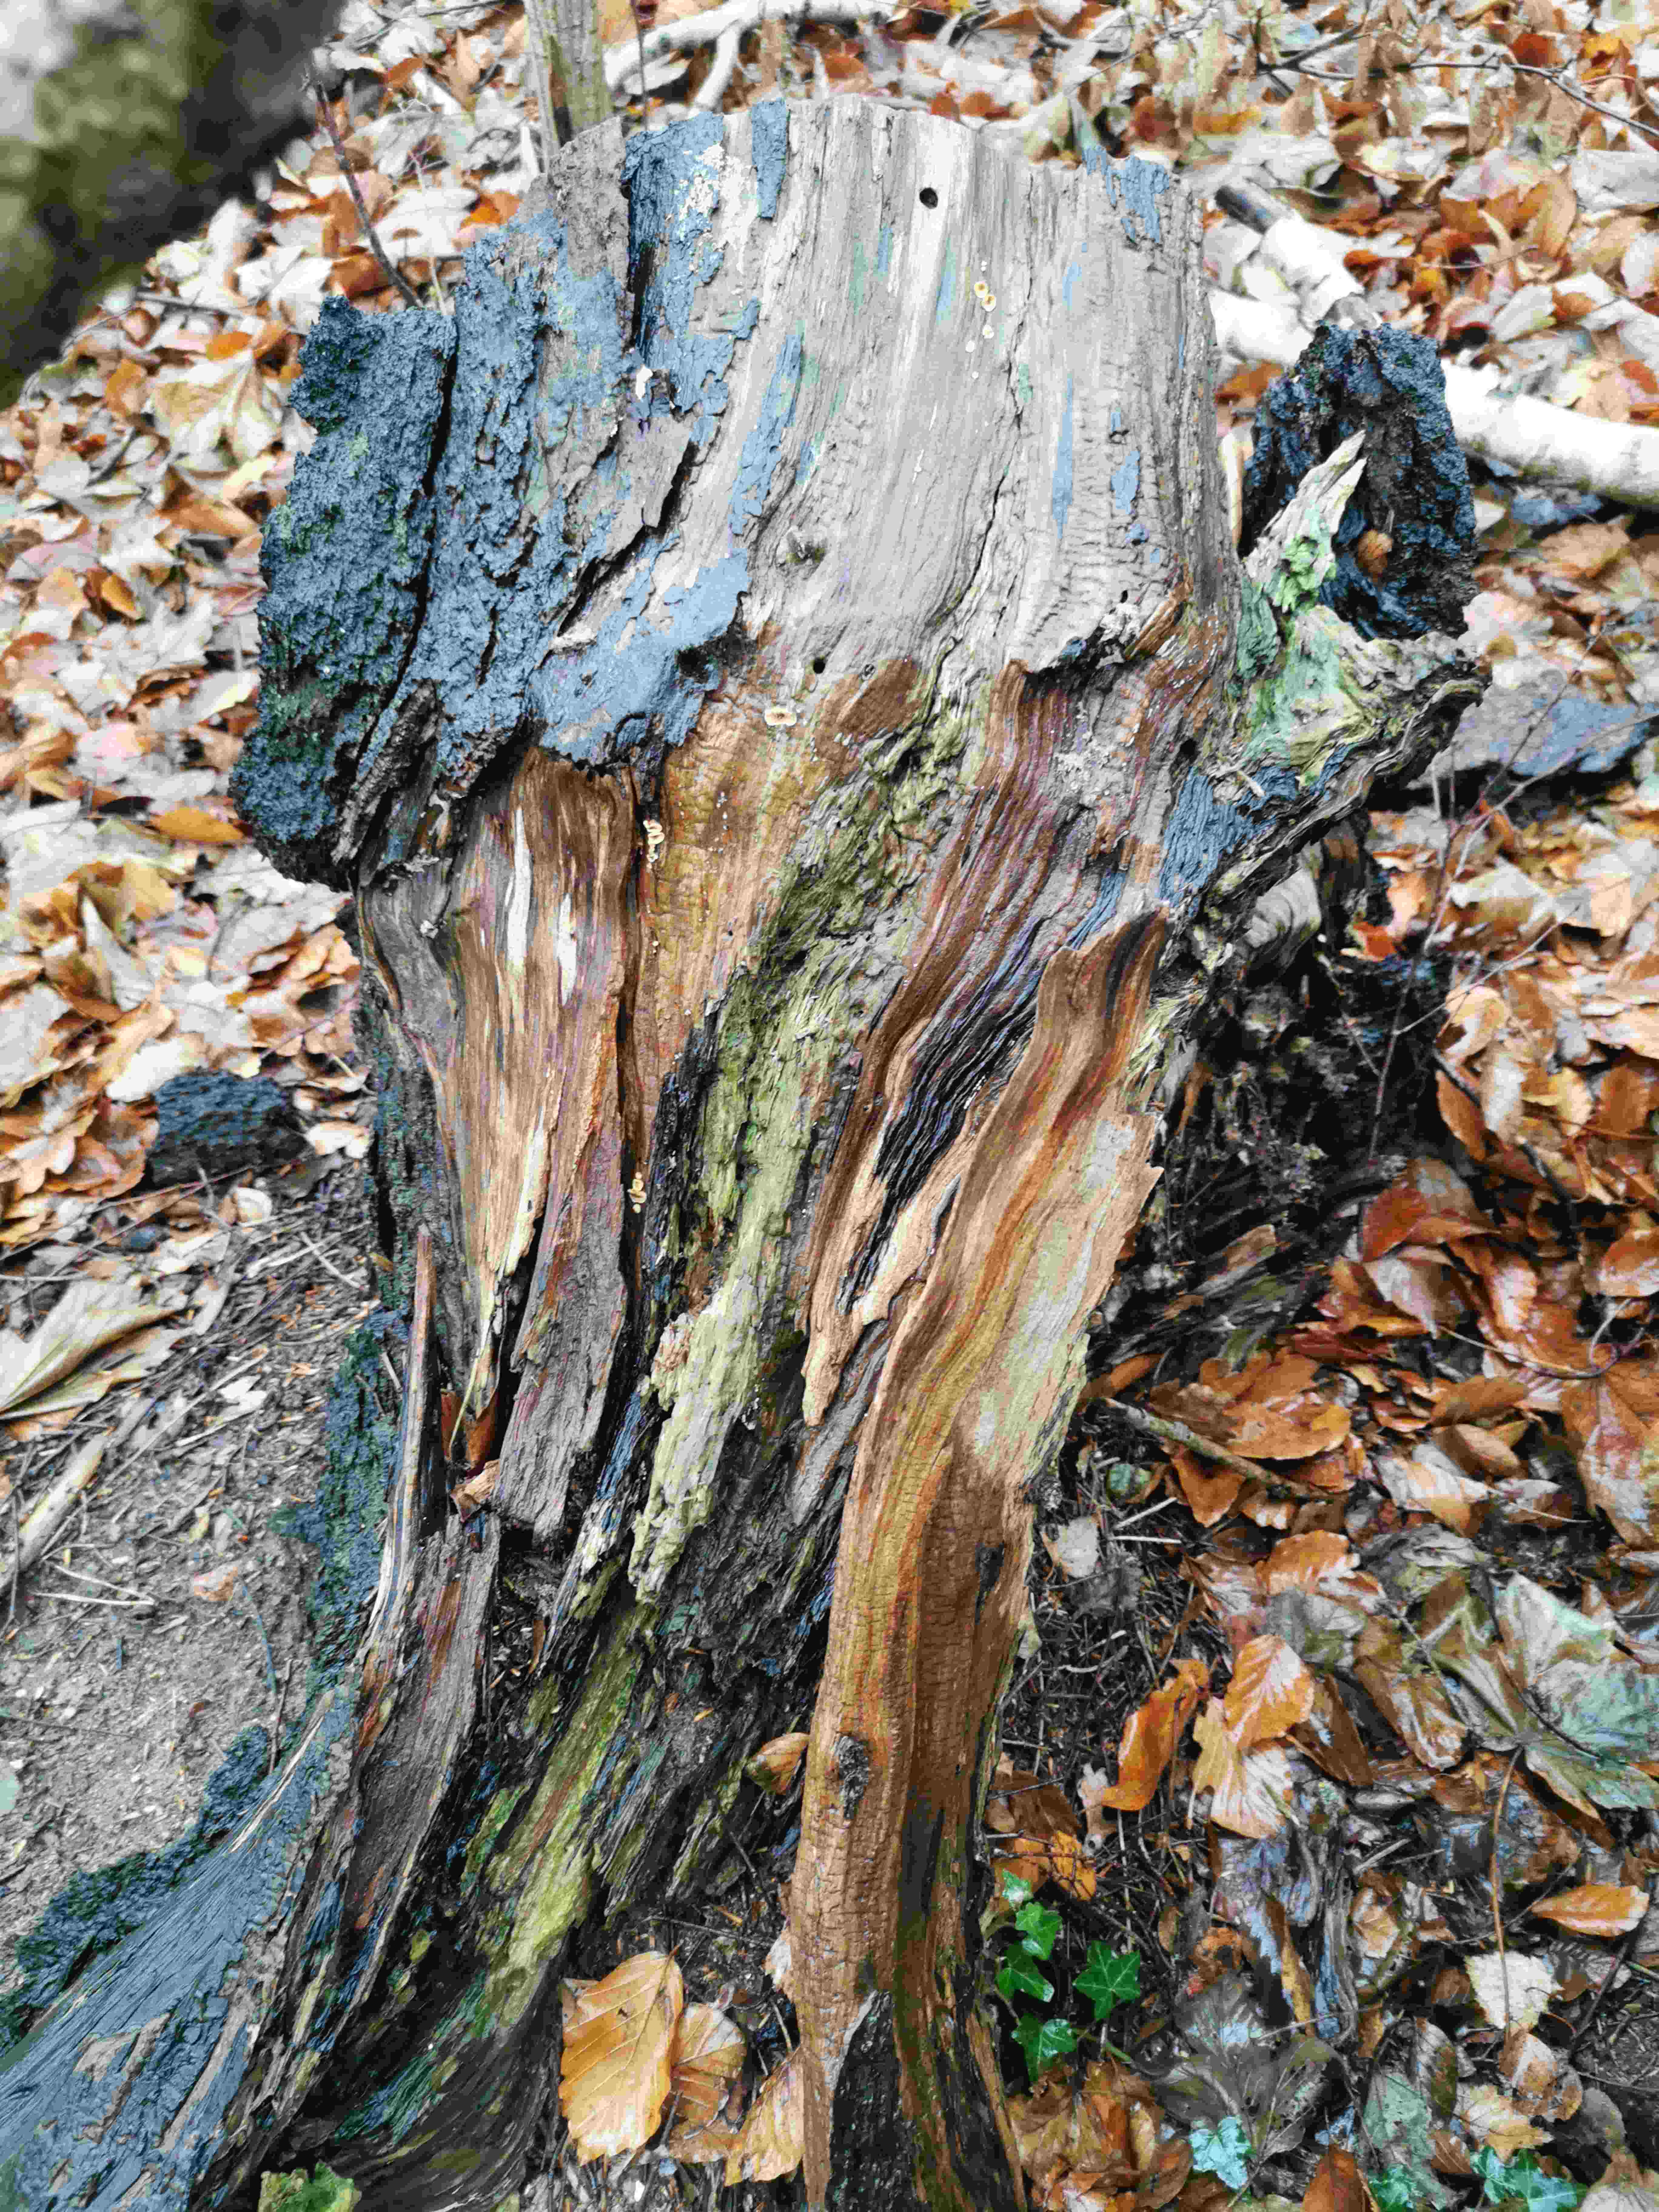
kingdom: Fungi
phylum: Basidiomycota
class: Agaricomycetes
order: Russulales
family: Stereaceae
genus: Stereum
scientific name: Stereum
